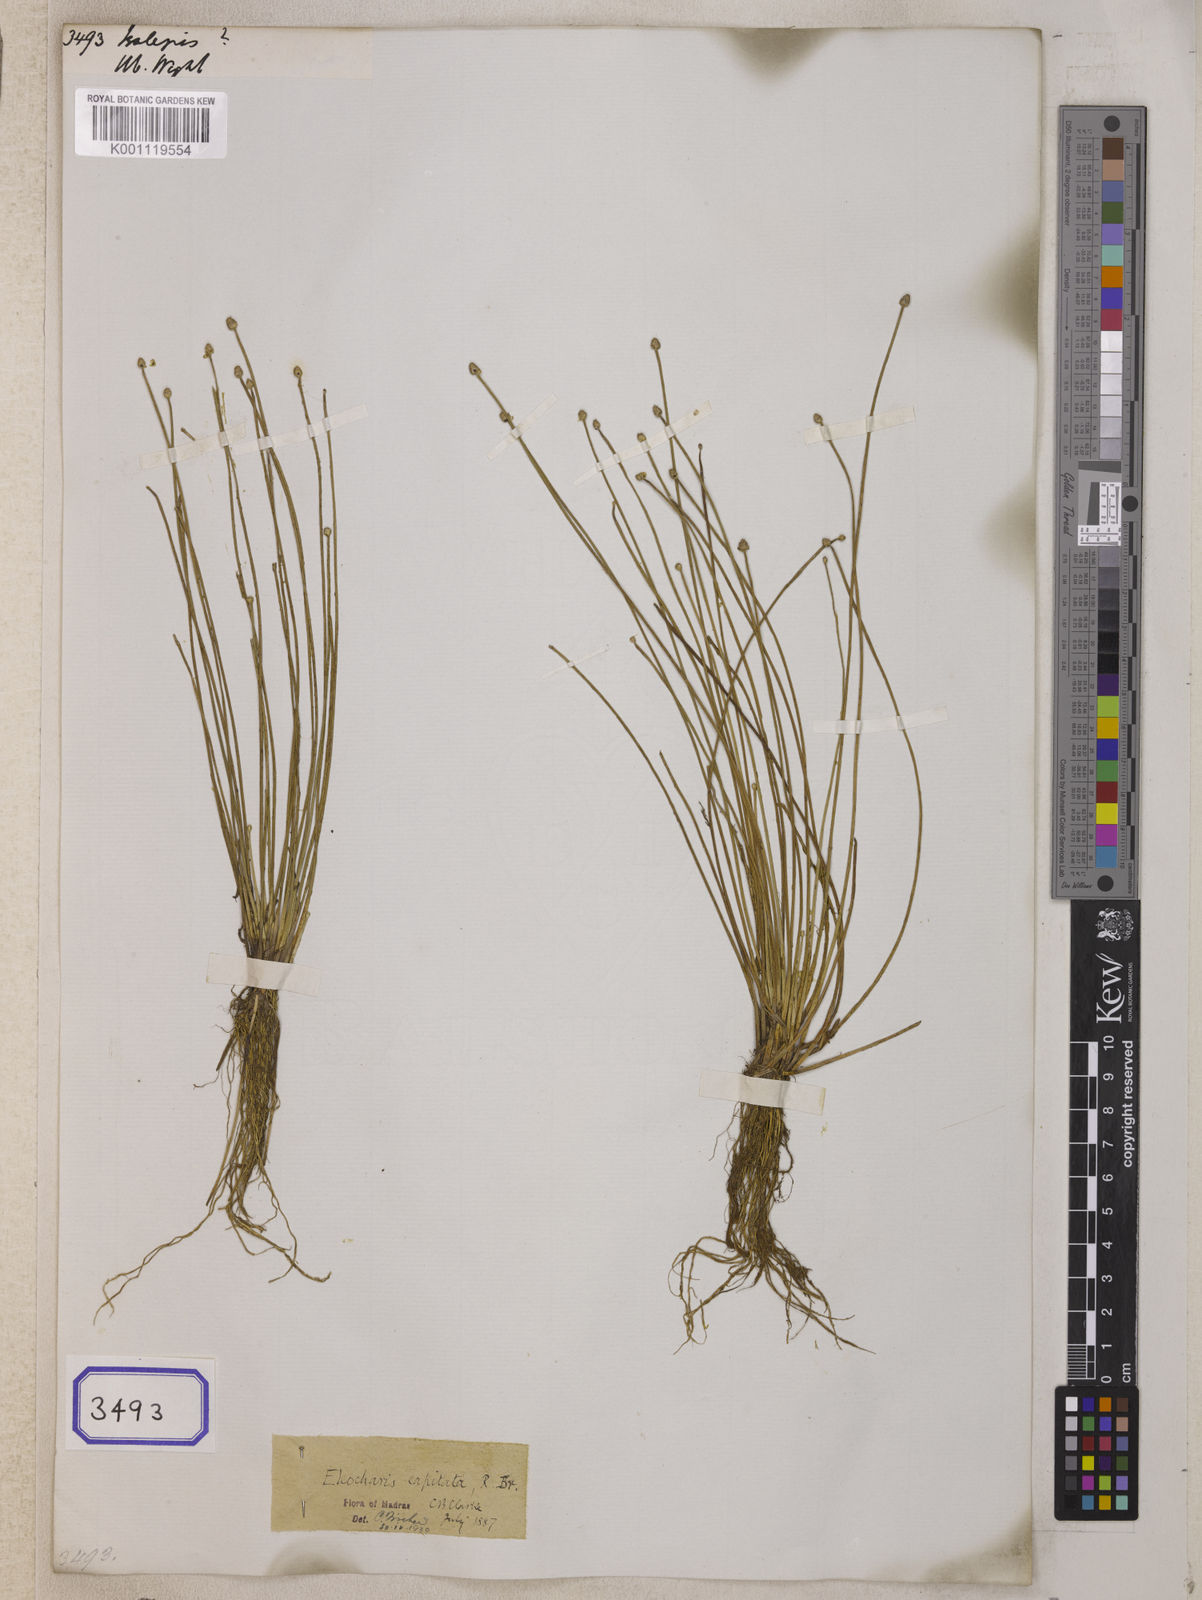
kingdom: Plantae
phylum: Tracheophyta
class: Liliopsida
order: Poales
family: Cyperaceae
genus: Isolepis
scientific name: Isolepis
